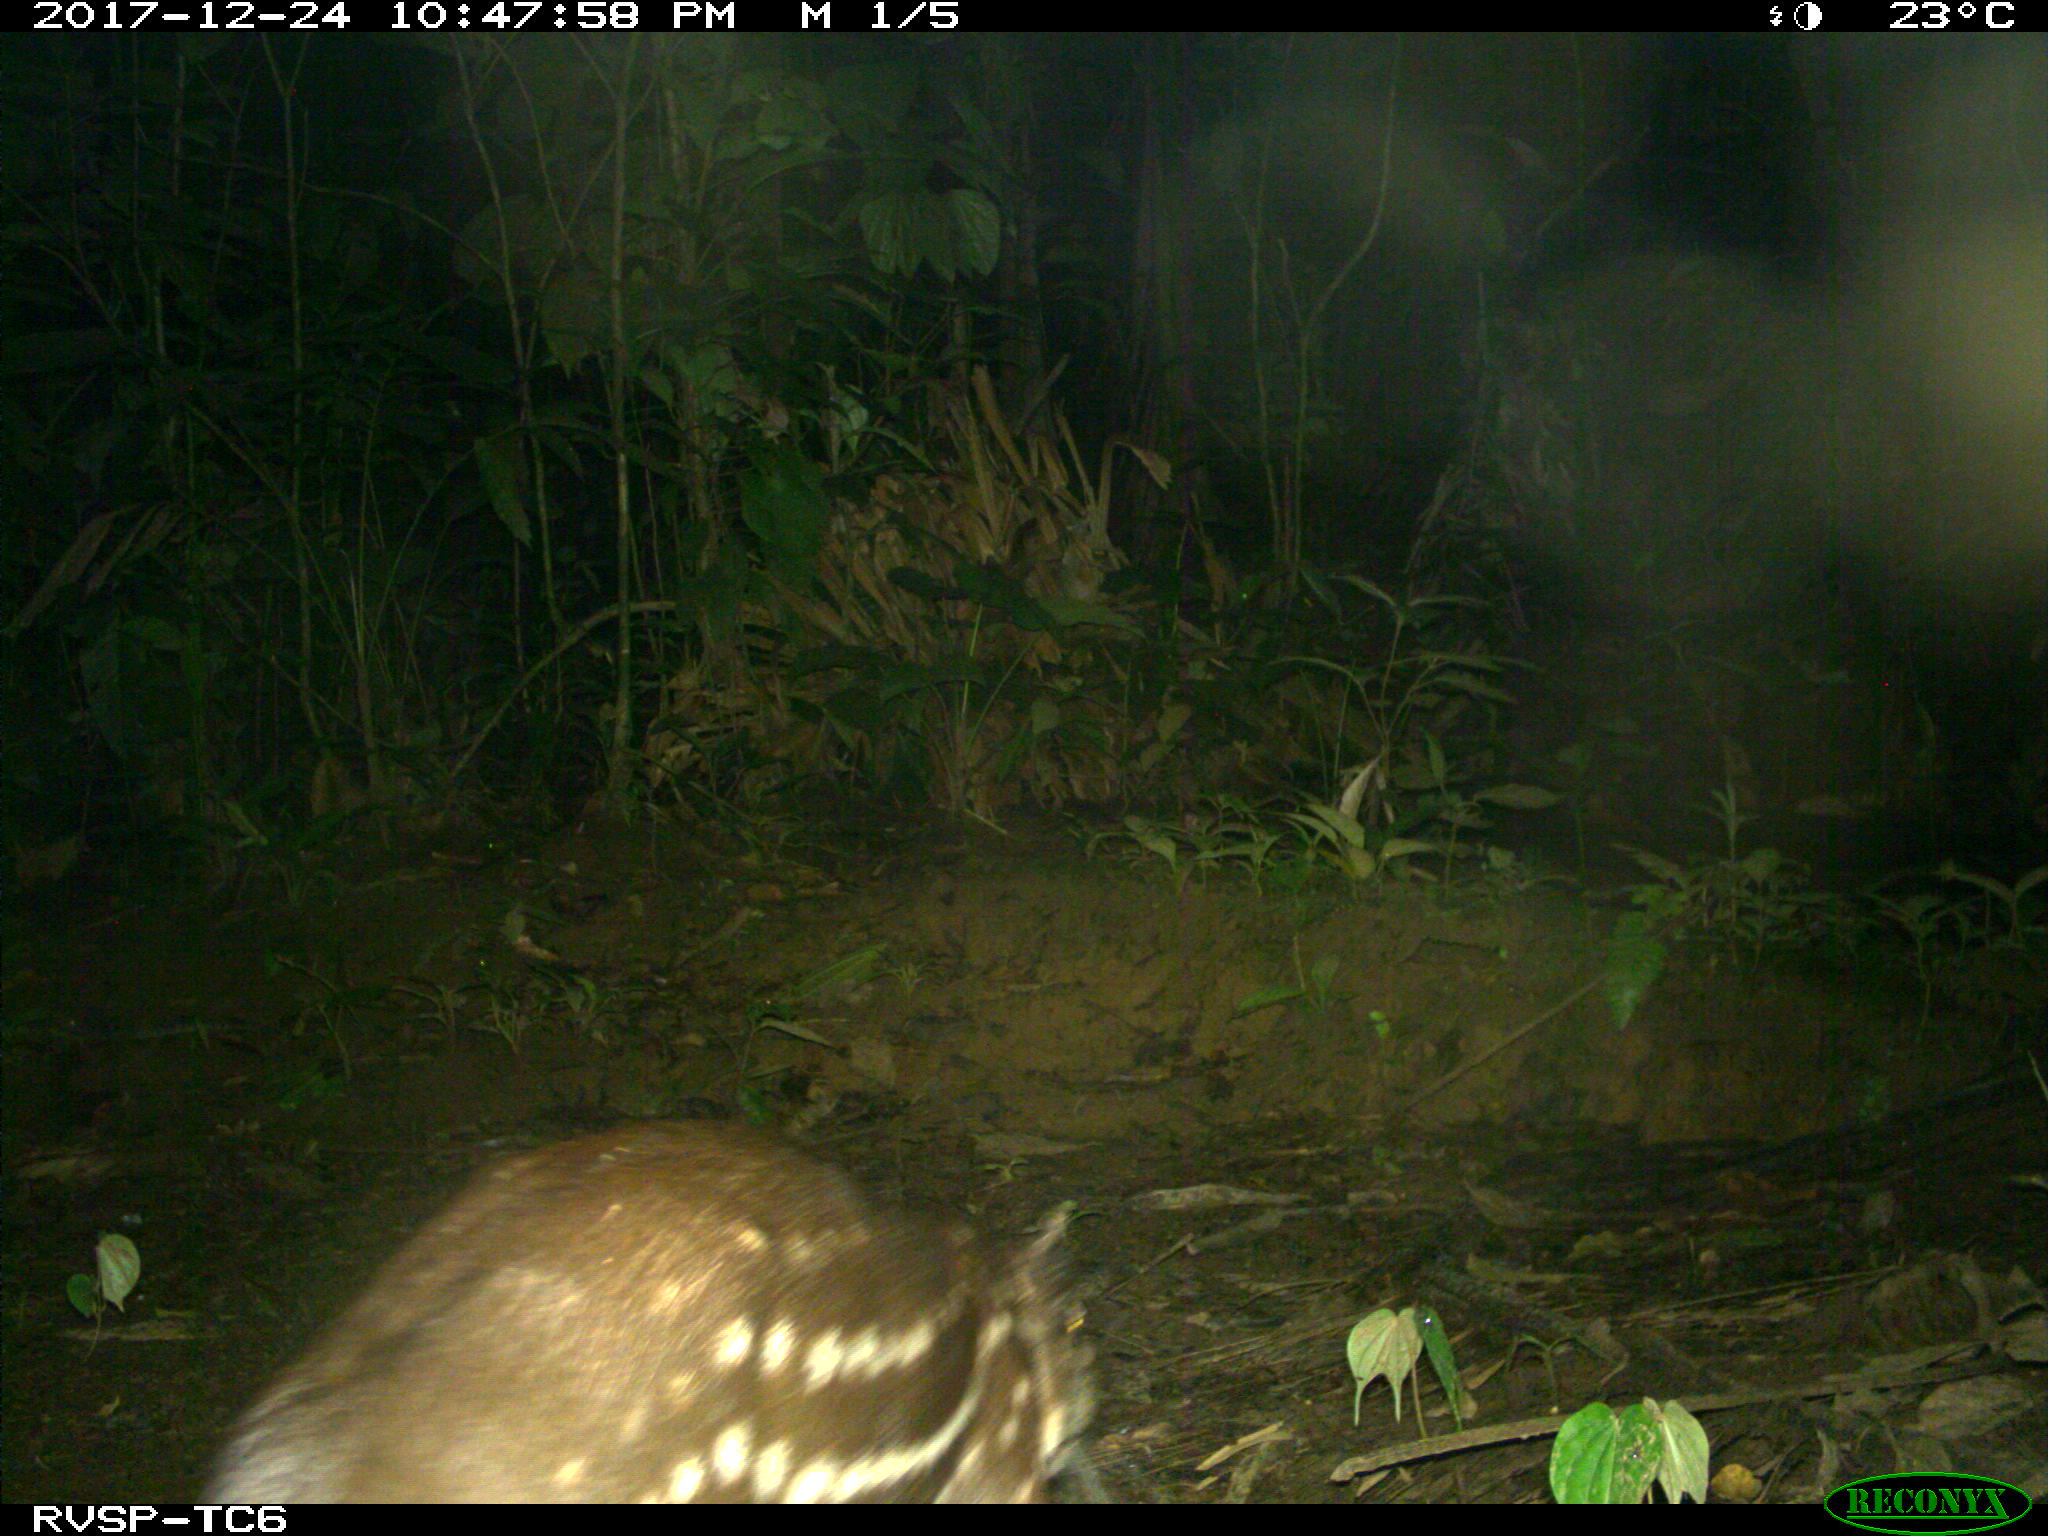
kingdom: Animalia
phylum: Chordata
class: Mammalia
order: Rodentia
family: Cuniculidae
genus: Cuniculus
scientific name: Cuniculus paca
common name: Lowland paca
